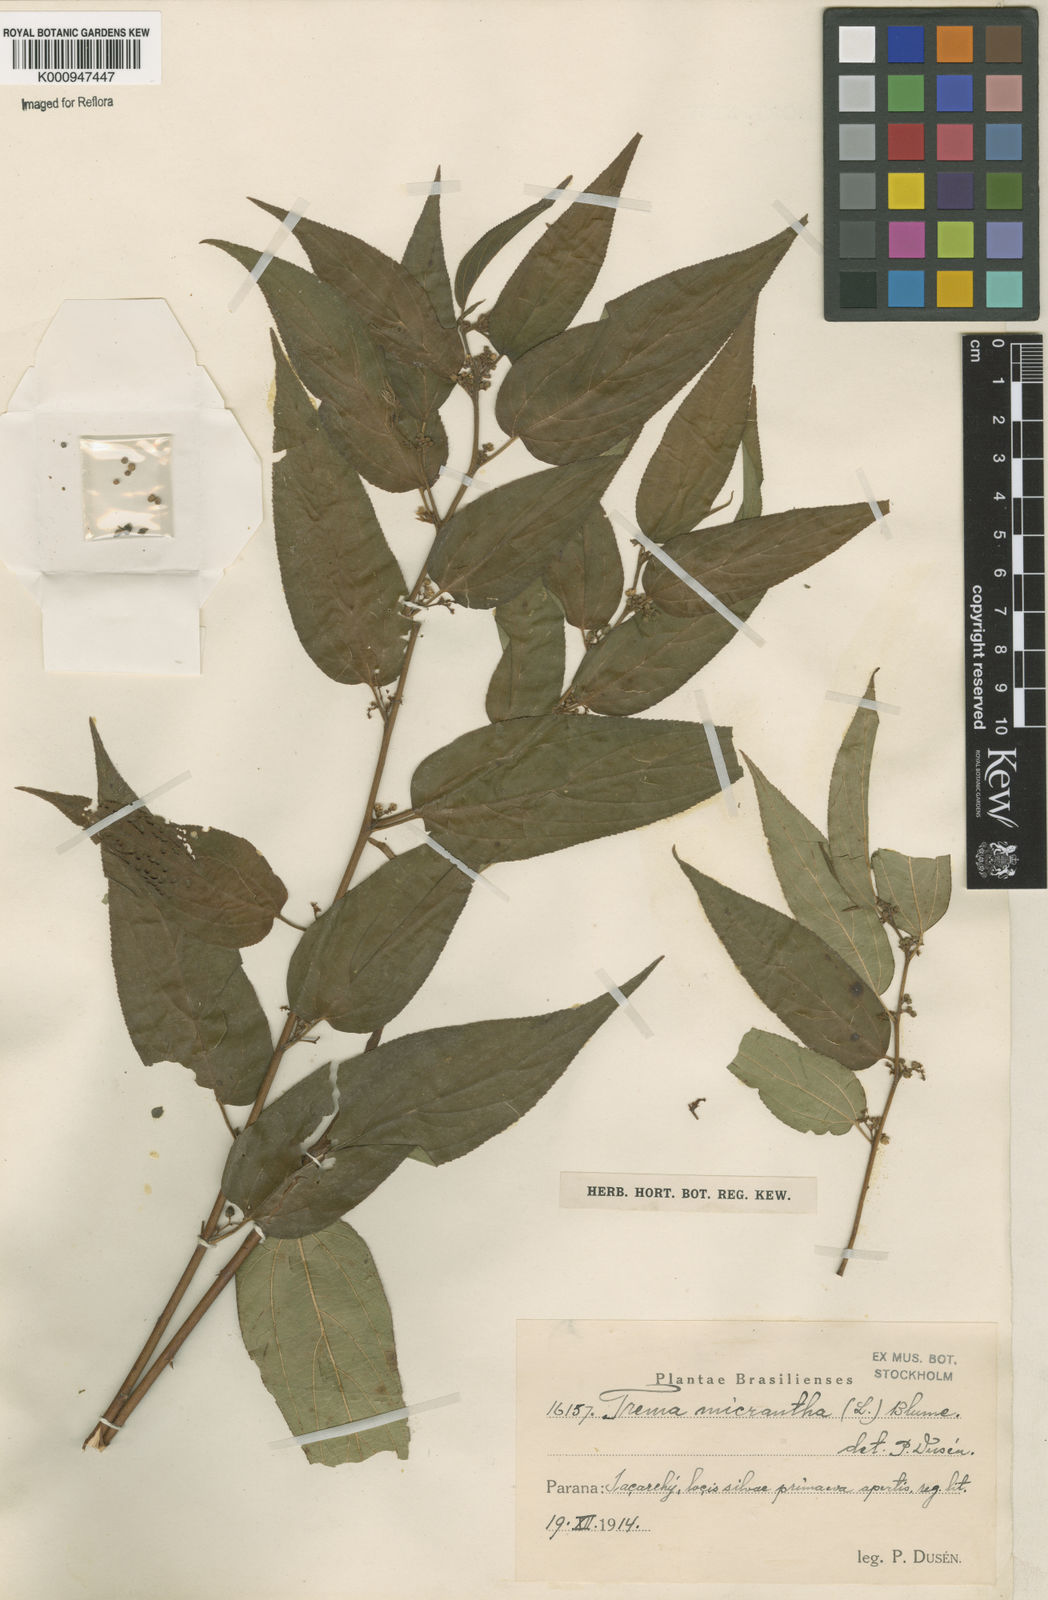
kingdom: Plantae
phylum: Tracheophyta
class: Magnoliopsida
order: Rosales
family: Cannabaceae
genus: Trema
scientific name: Trema micranthum
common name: Jamaican nettletree
